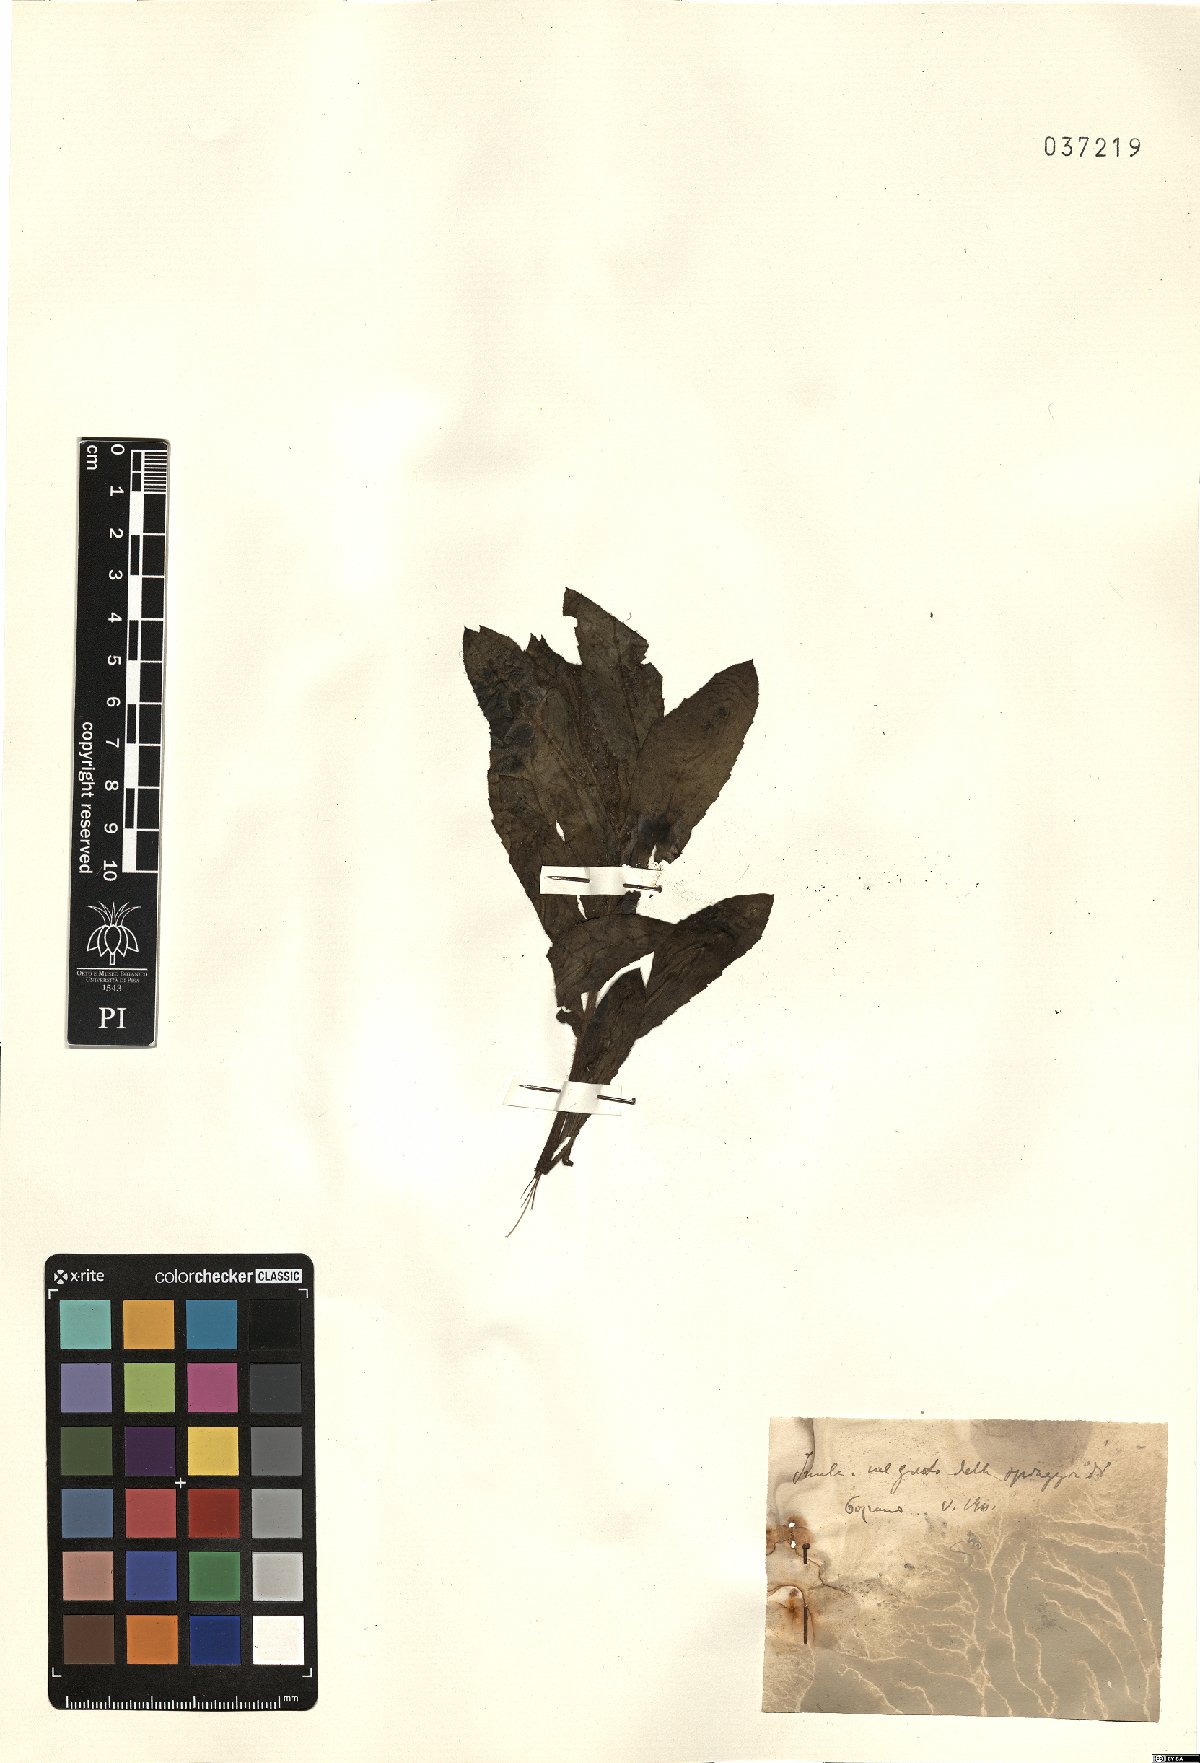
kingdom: Plantae
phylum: Tracheophyta
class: Magnoliopsida
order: Asterales
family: Asteraceae
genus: Inula
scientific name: Inula
